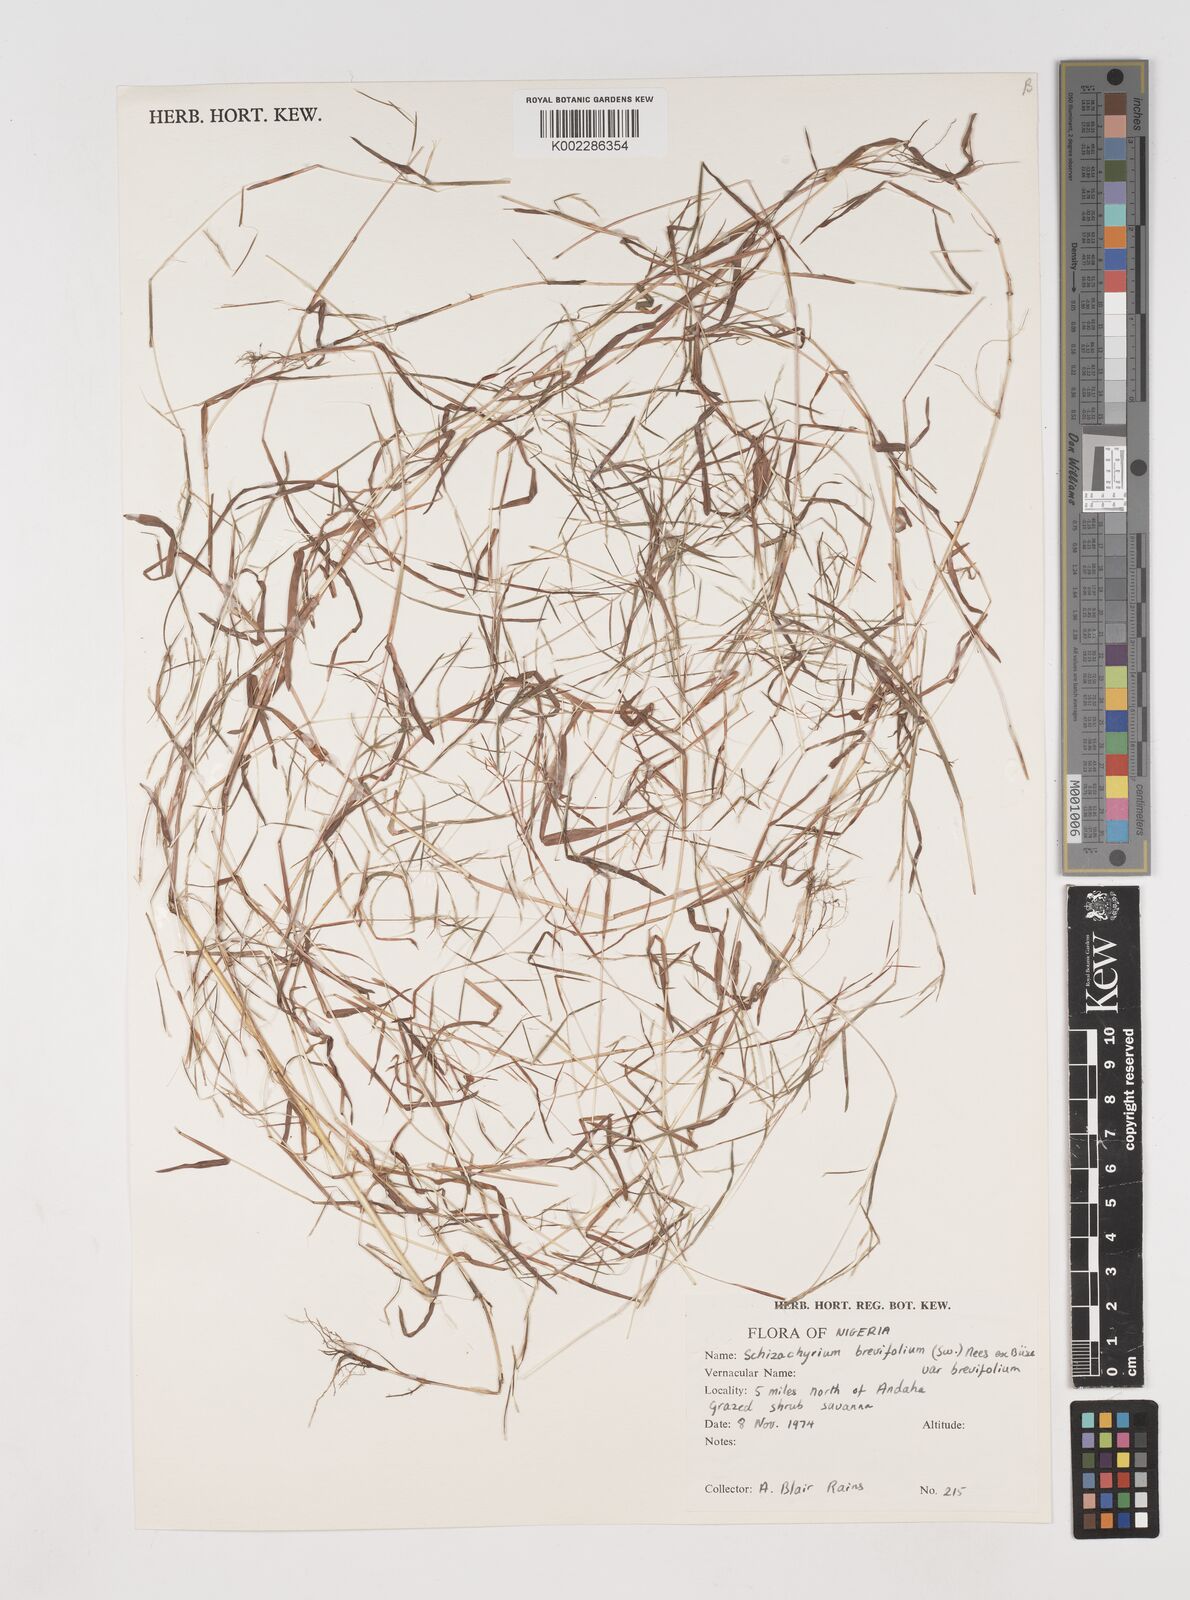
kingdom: Plantae
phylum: Tracheophyta
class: Liliopsida
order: Poales
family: Poaceae
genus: Schizachyrium
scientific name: Schizachyrium brevifolium
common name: Serillo dulce
